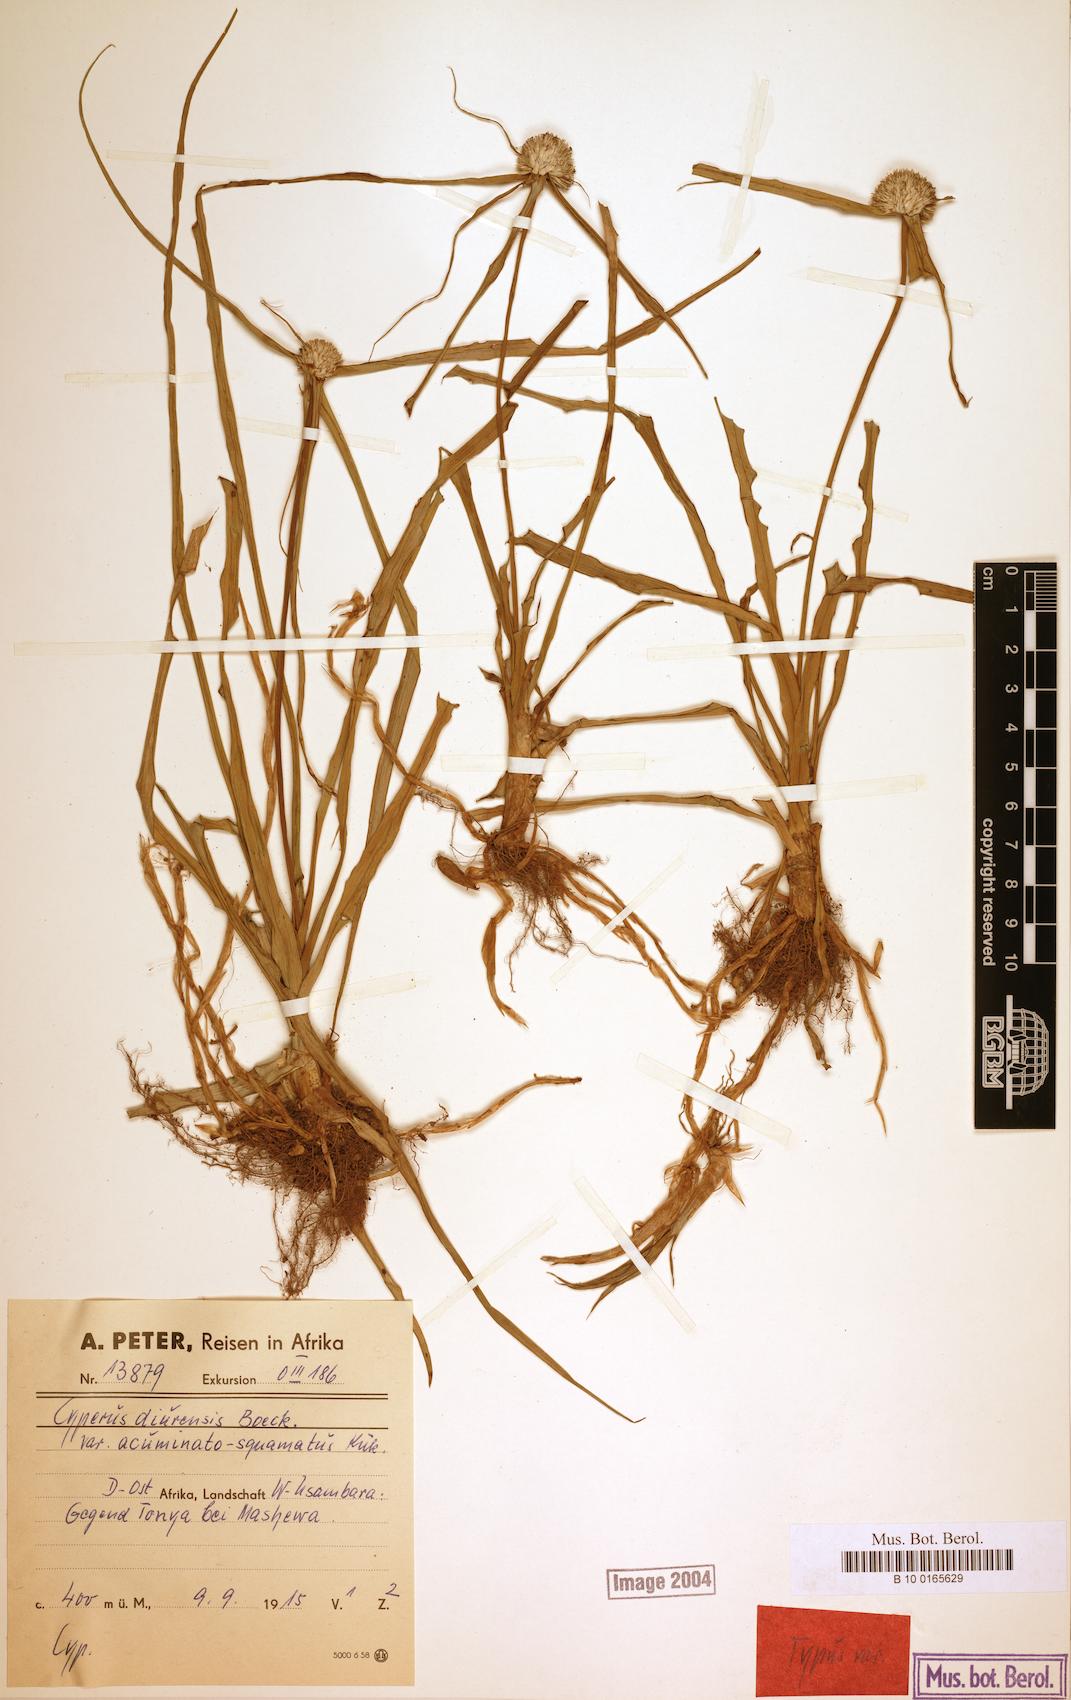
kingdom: Plantae
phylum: Tracheophyta
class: Liliopsida
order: Poales
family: Cyperaceae
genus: Cyperus
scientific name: Cyperus diurensis
